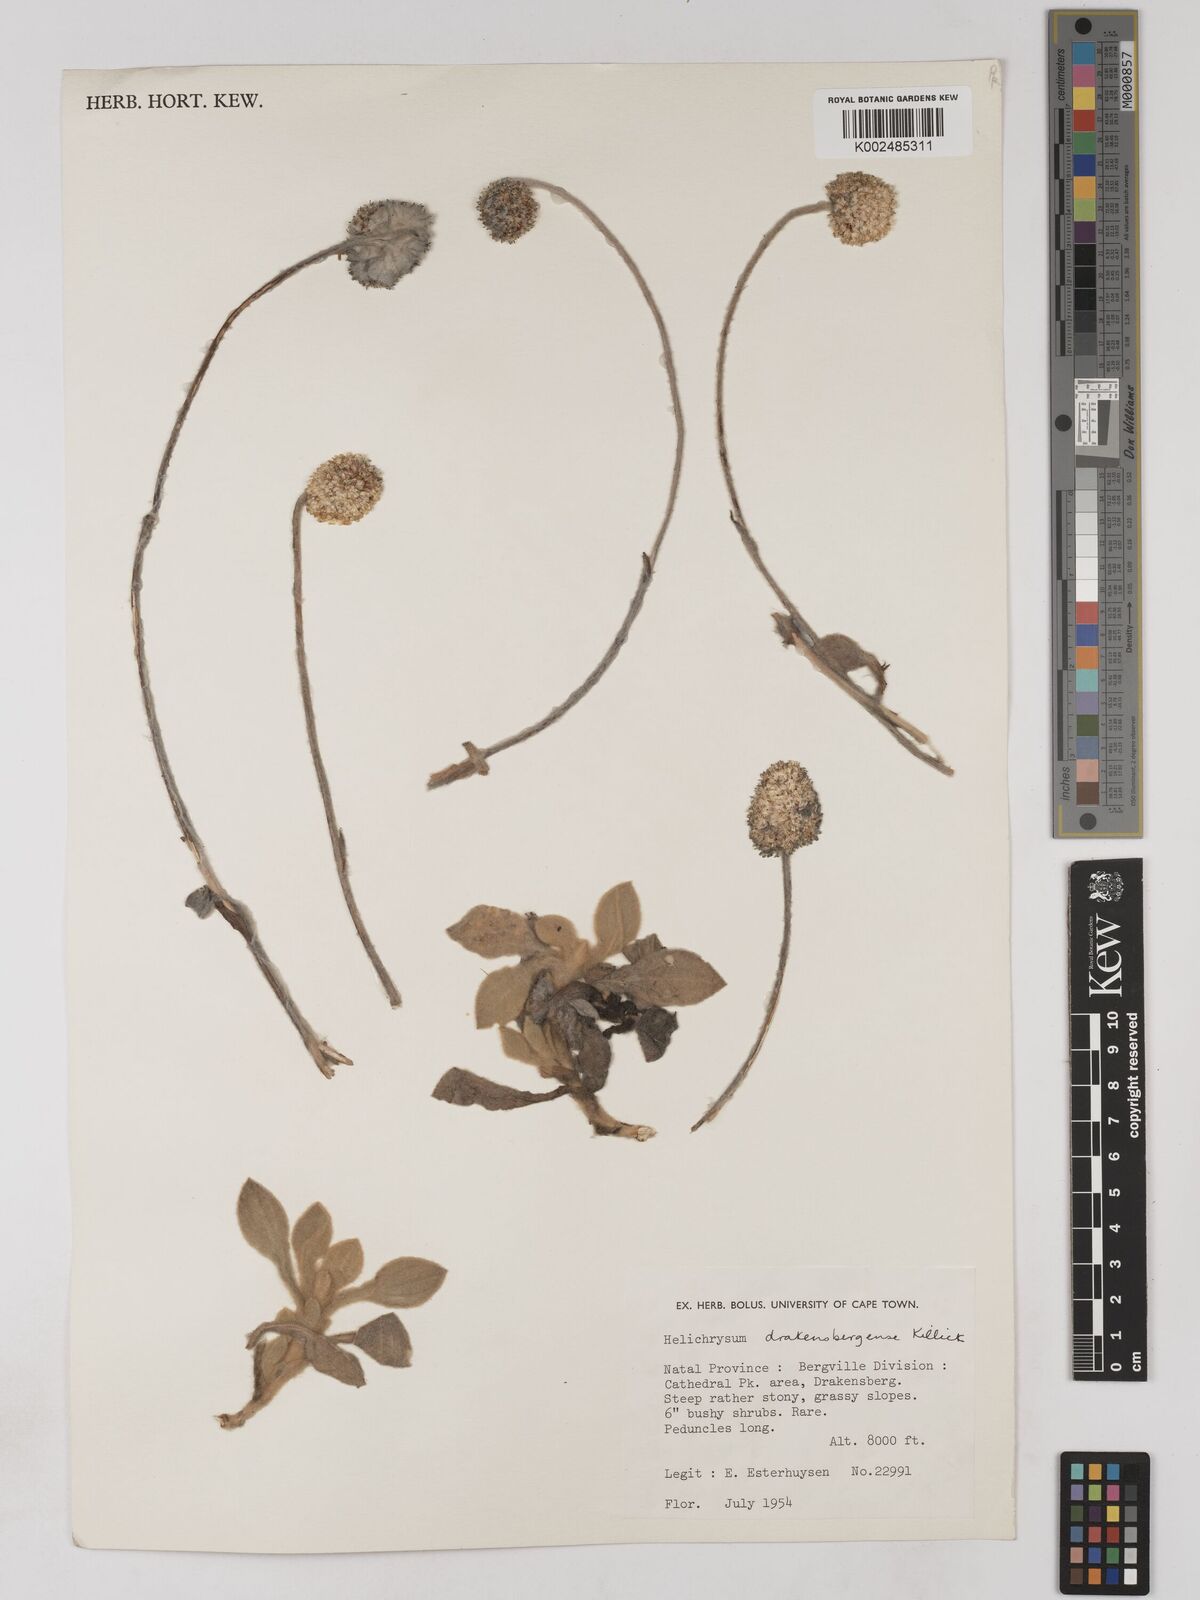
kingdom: Plantae
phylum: Tracheophyta
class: Magnoliopsida
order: Asterales
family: Asteraceae
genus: Helichrysum
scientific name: Helichrysum drakensbergense
